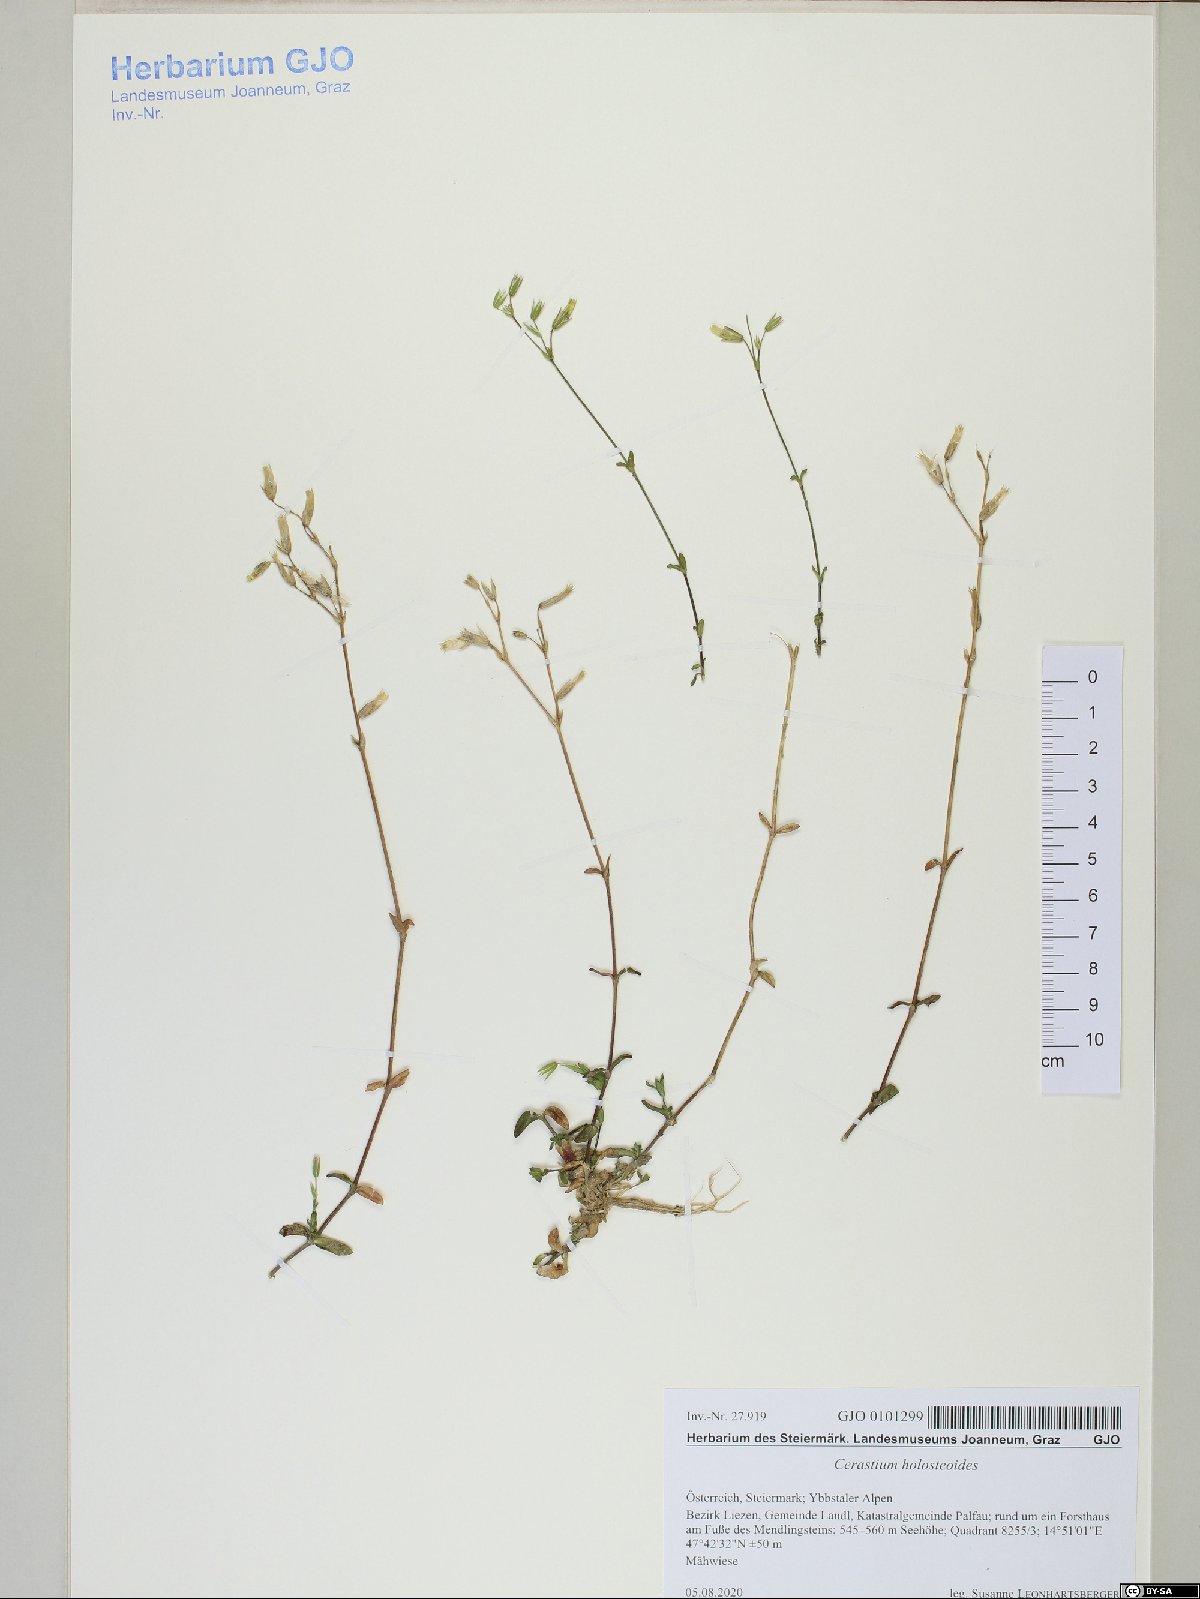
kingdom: Plantae
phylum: Tracheophyta
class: Magnoliopsida
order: Caryophyllales
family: Caryophyllaceae
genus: Cerastium
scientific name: Cerastium holosteoides
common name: Big chickweed
